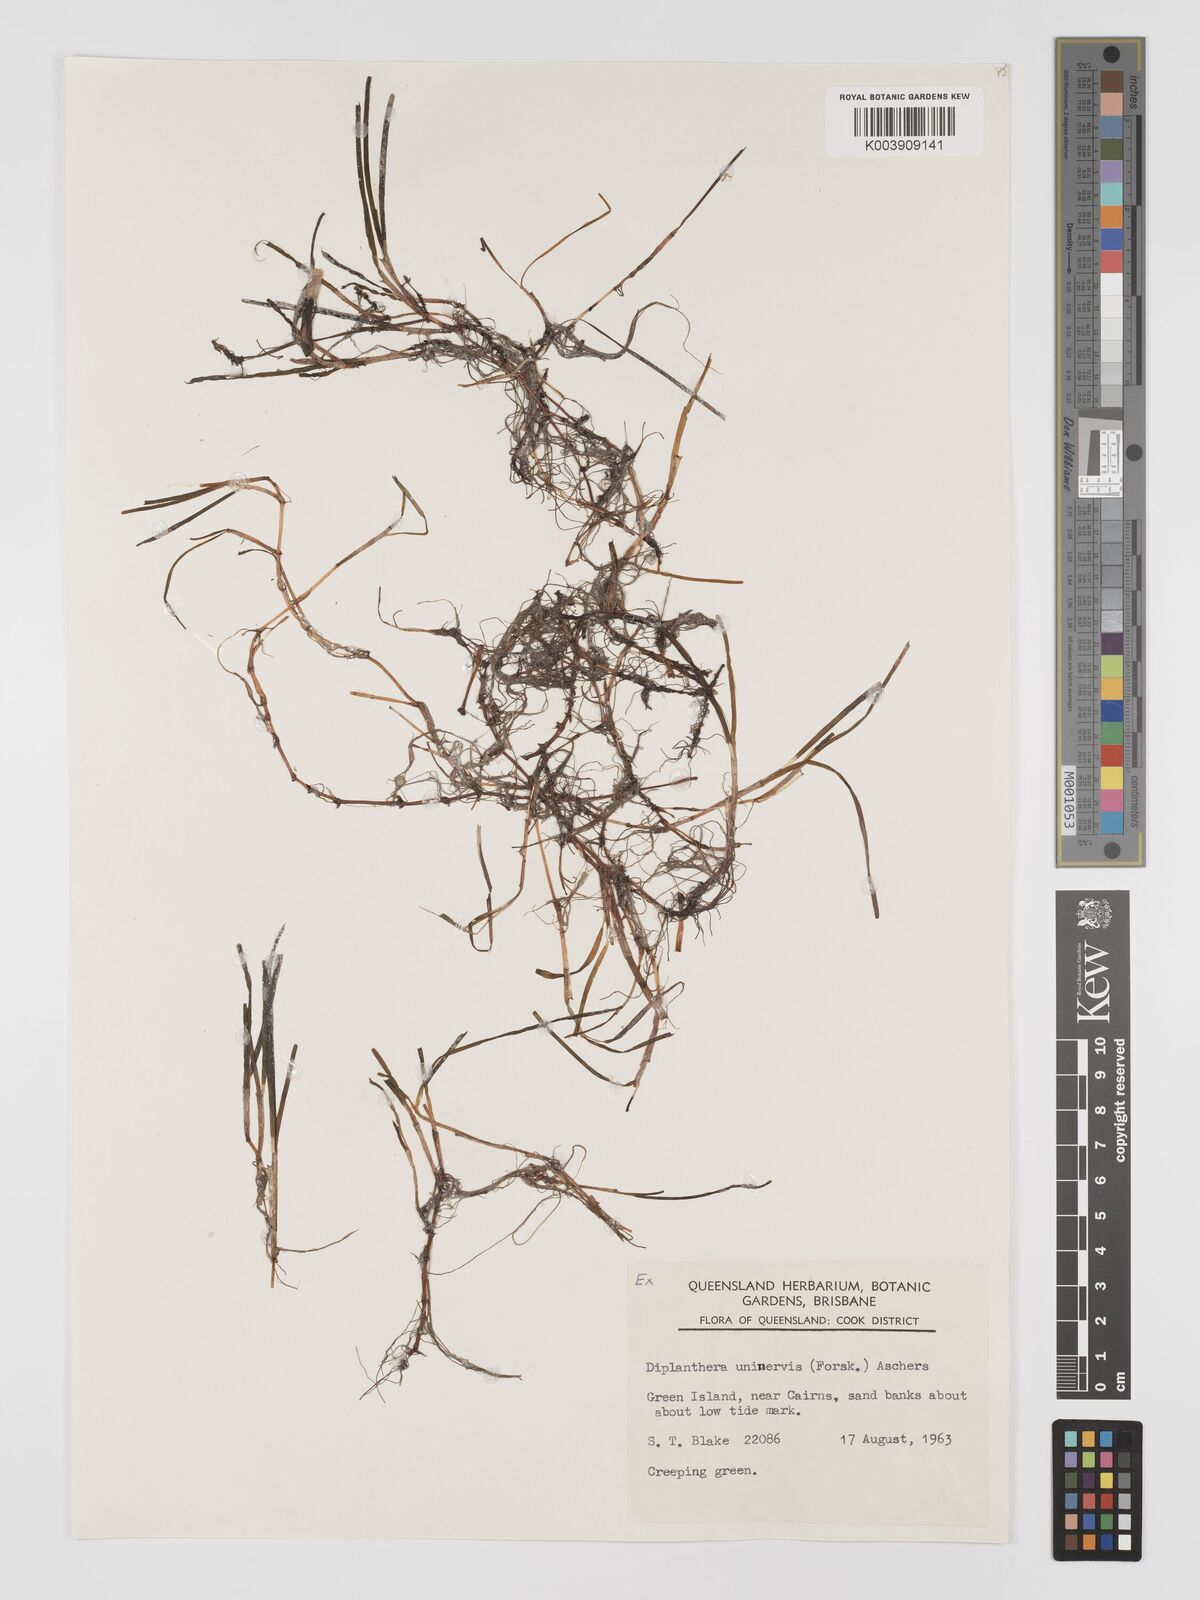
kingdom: Plantae
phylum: Tracheophyta
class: Liliopsida
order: Alismatales
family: Cymodoceaceae
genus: Halodule
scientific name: Halodule uninervis
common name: Narrowleaf seagrass
